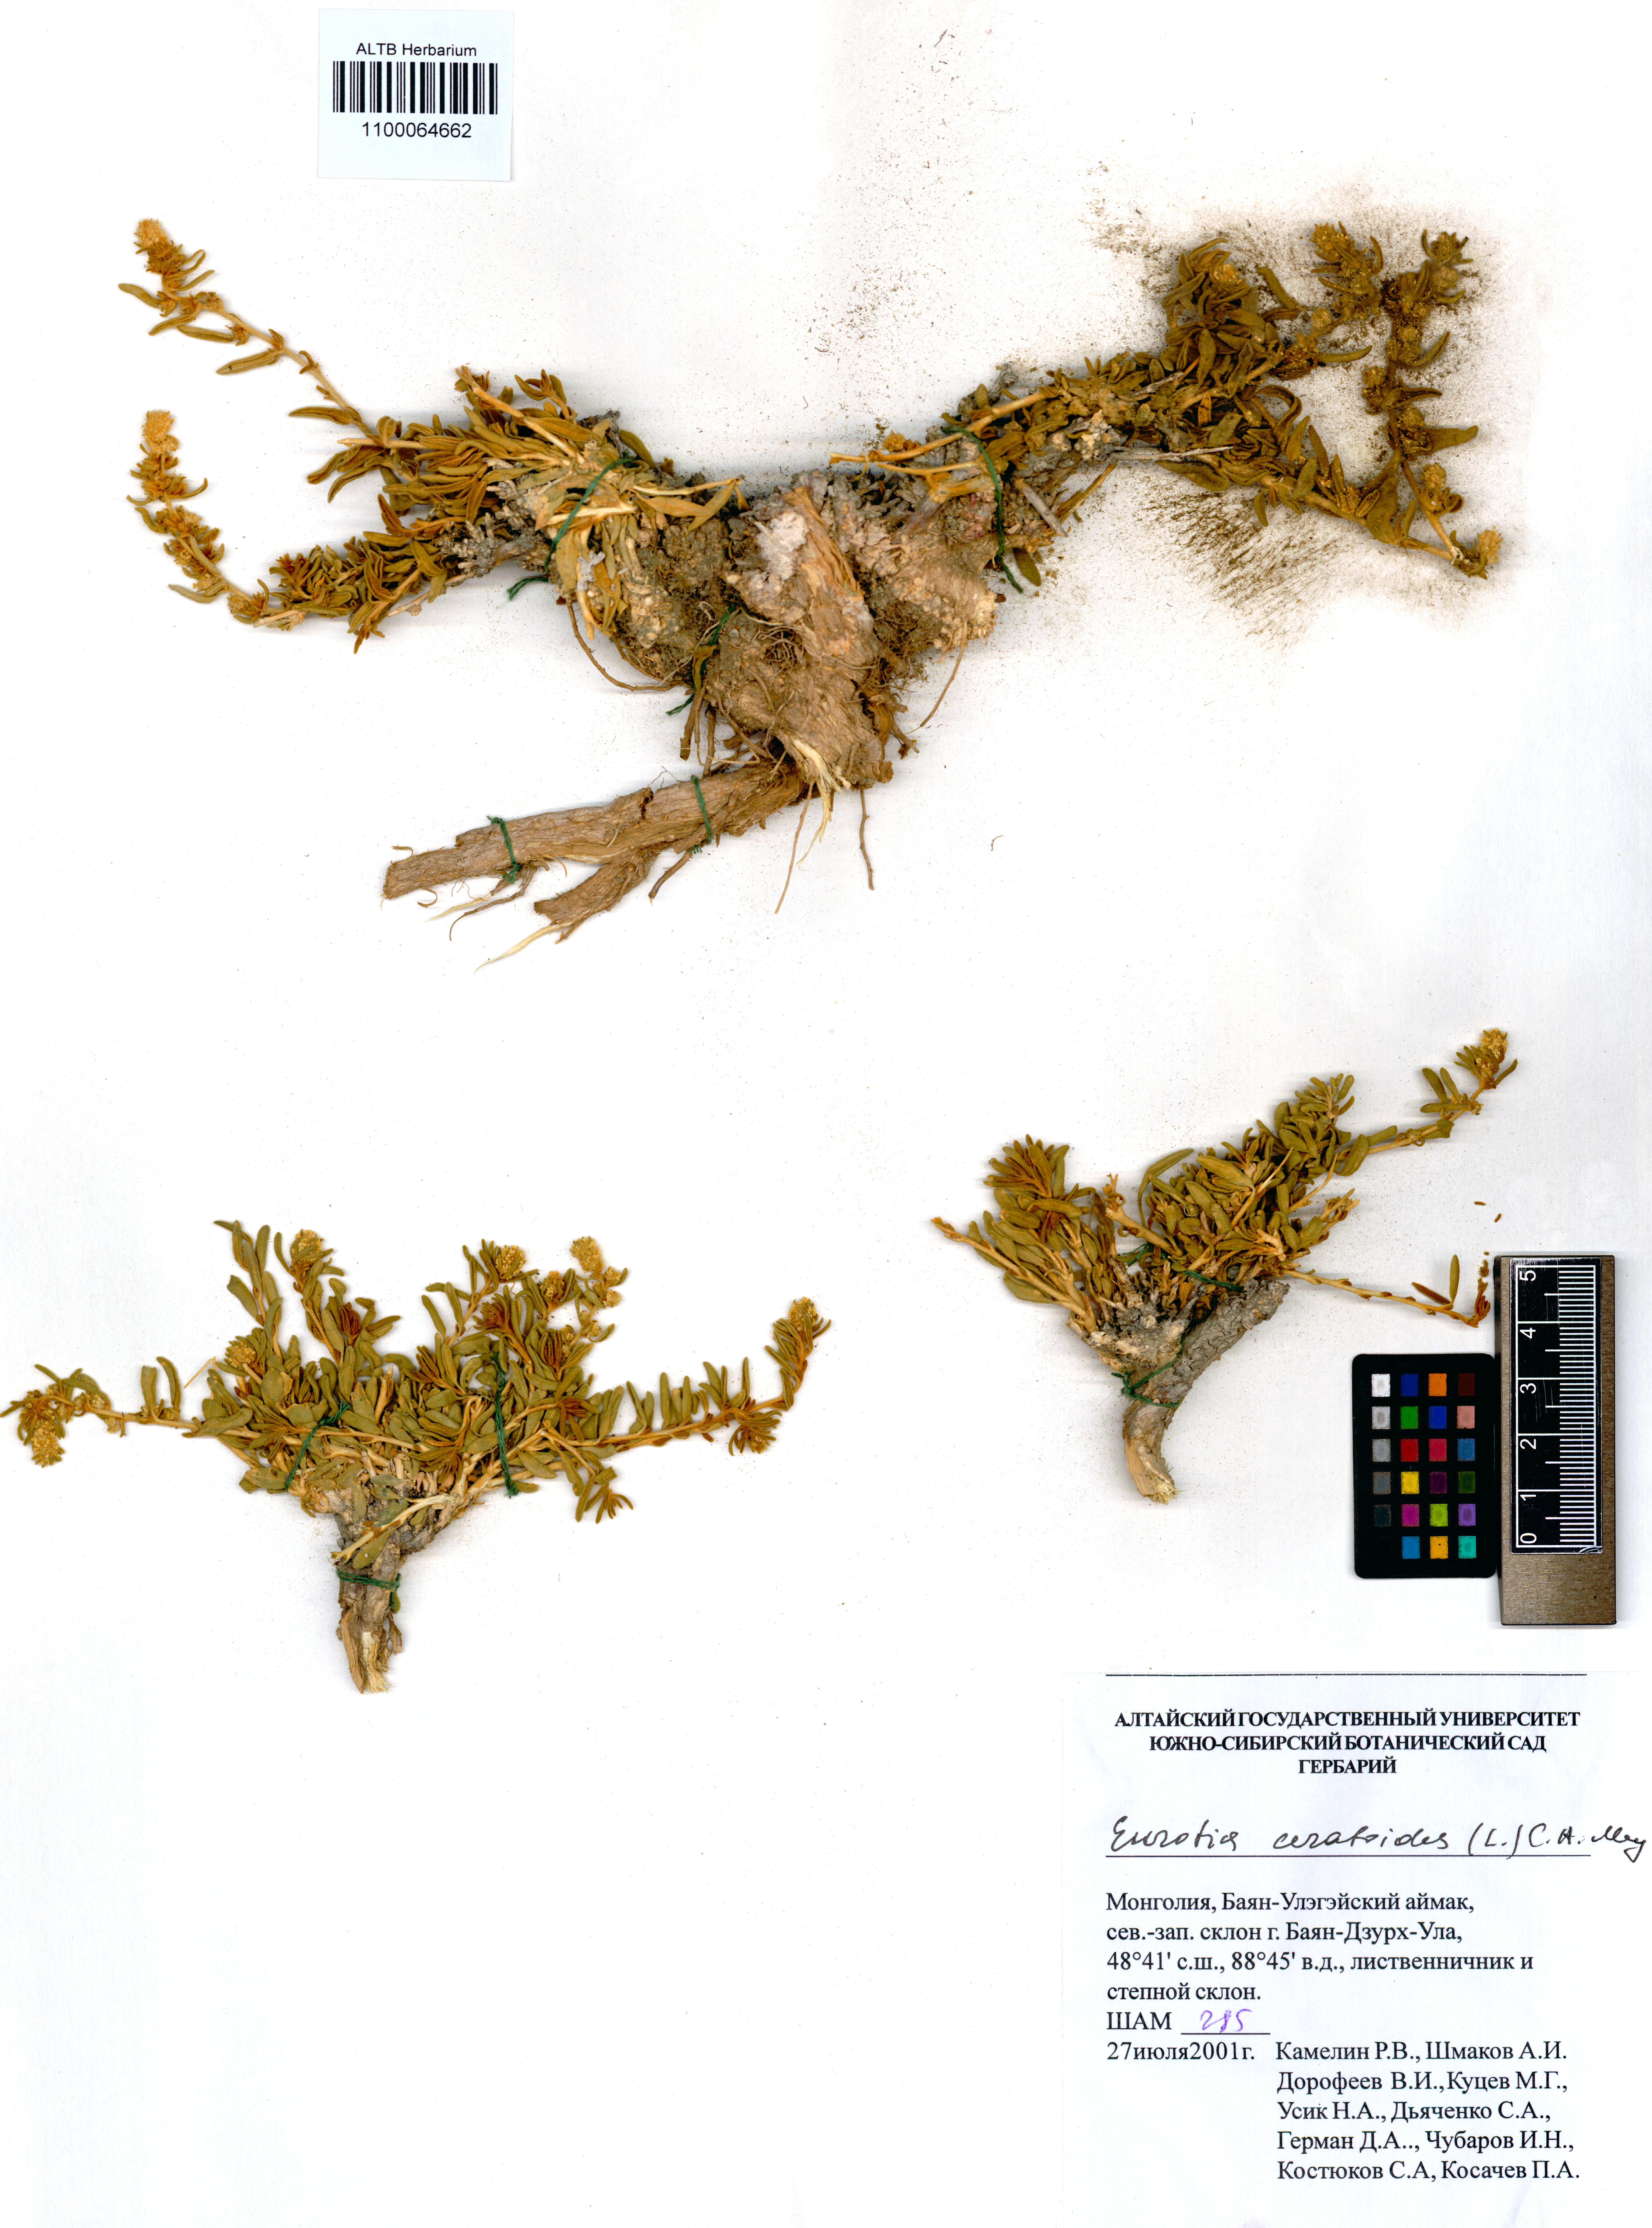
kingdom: Plantae
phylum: Tracheophyta
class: Magnoliopsida
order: Caryophyllales
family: Amaranthaceae
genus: Krascheninnikovia
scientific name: Krascheninnikovia ceratoides
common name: Pamirian winterfat
